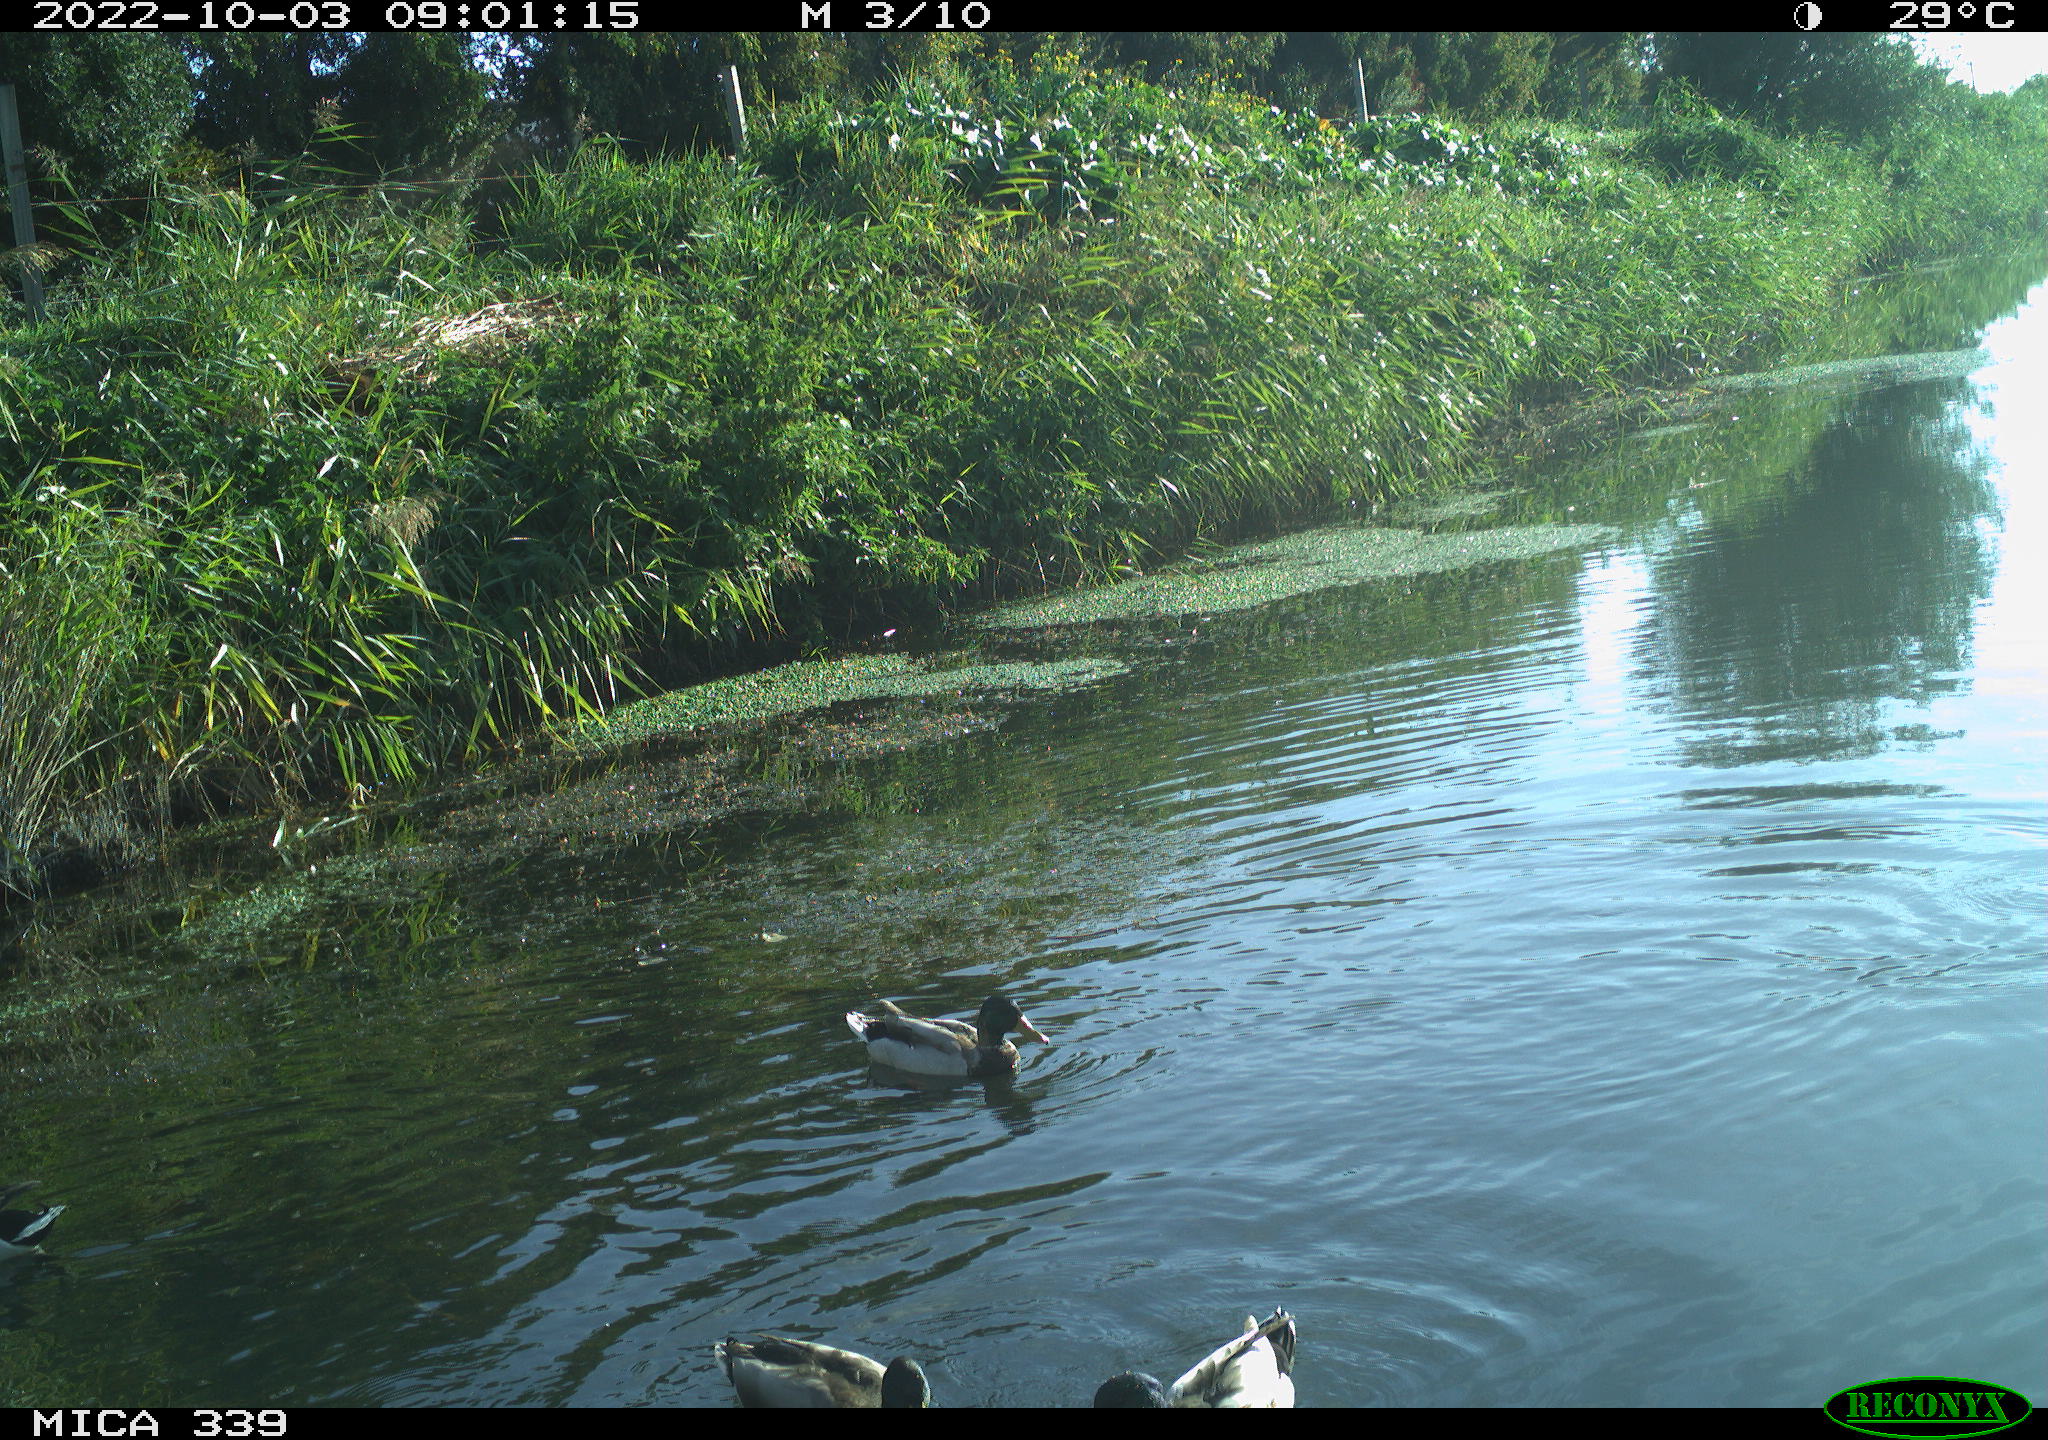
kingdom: Animalia
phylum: Chordata
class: Aves
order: Anseriformes
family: Anatidae
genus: Anas
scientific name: Anas platyrhynchos
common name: Mallard
